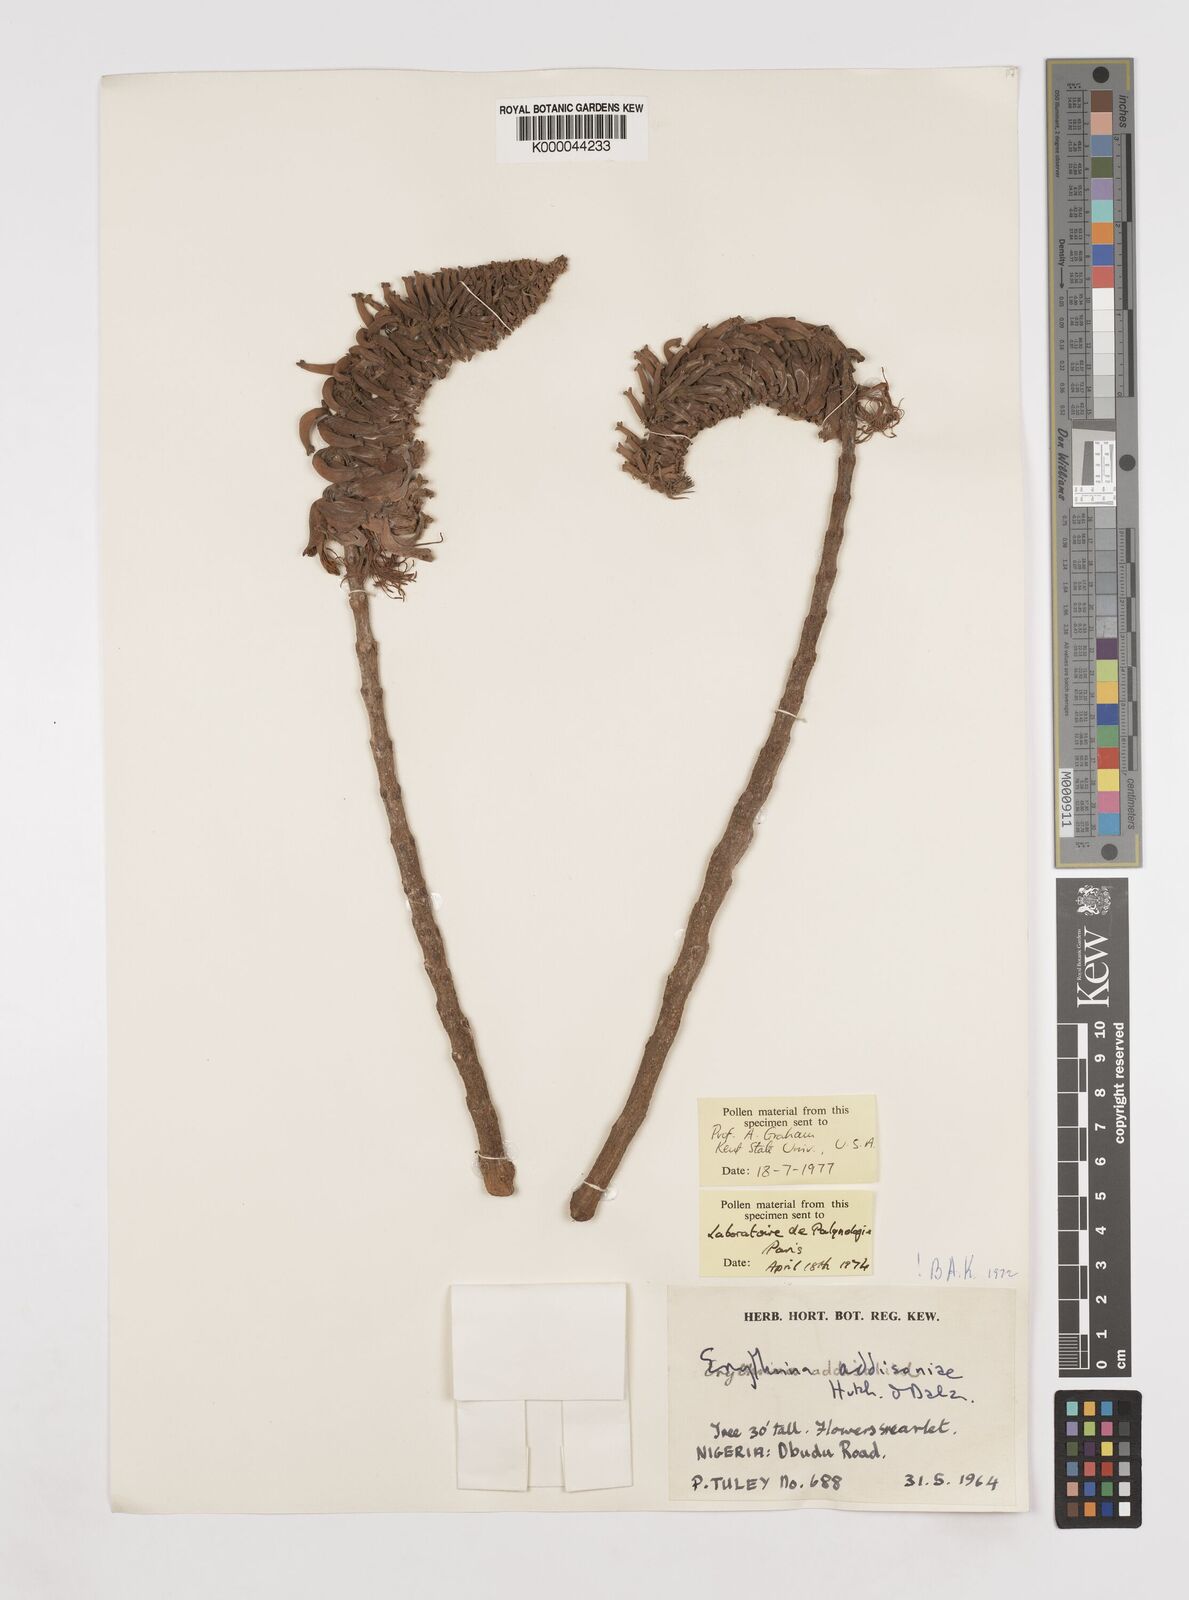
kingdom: Plantae
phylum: Tracheophyta
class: Magnoliopsida
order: Fabales
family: Fabaceae
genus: Erythrina
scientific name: Erythrina addisoniae
